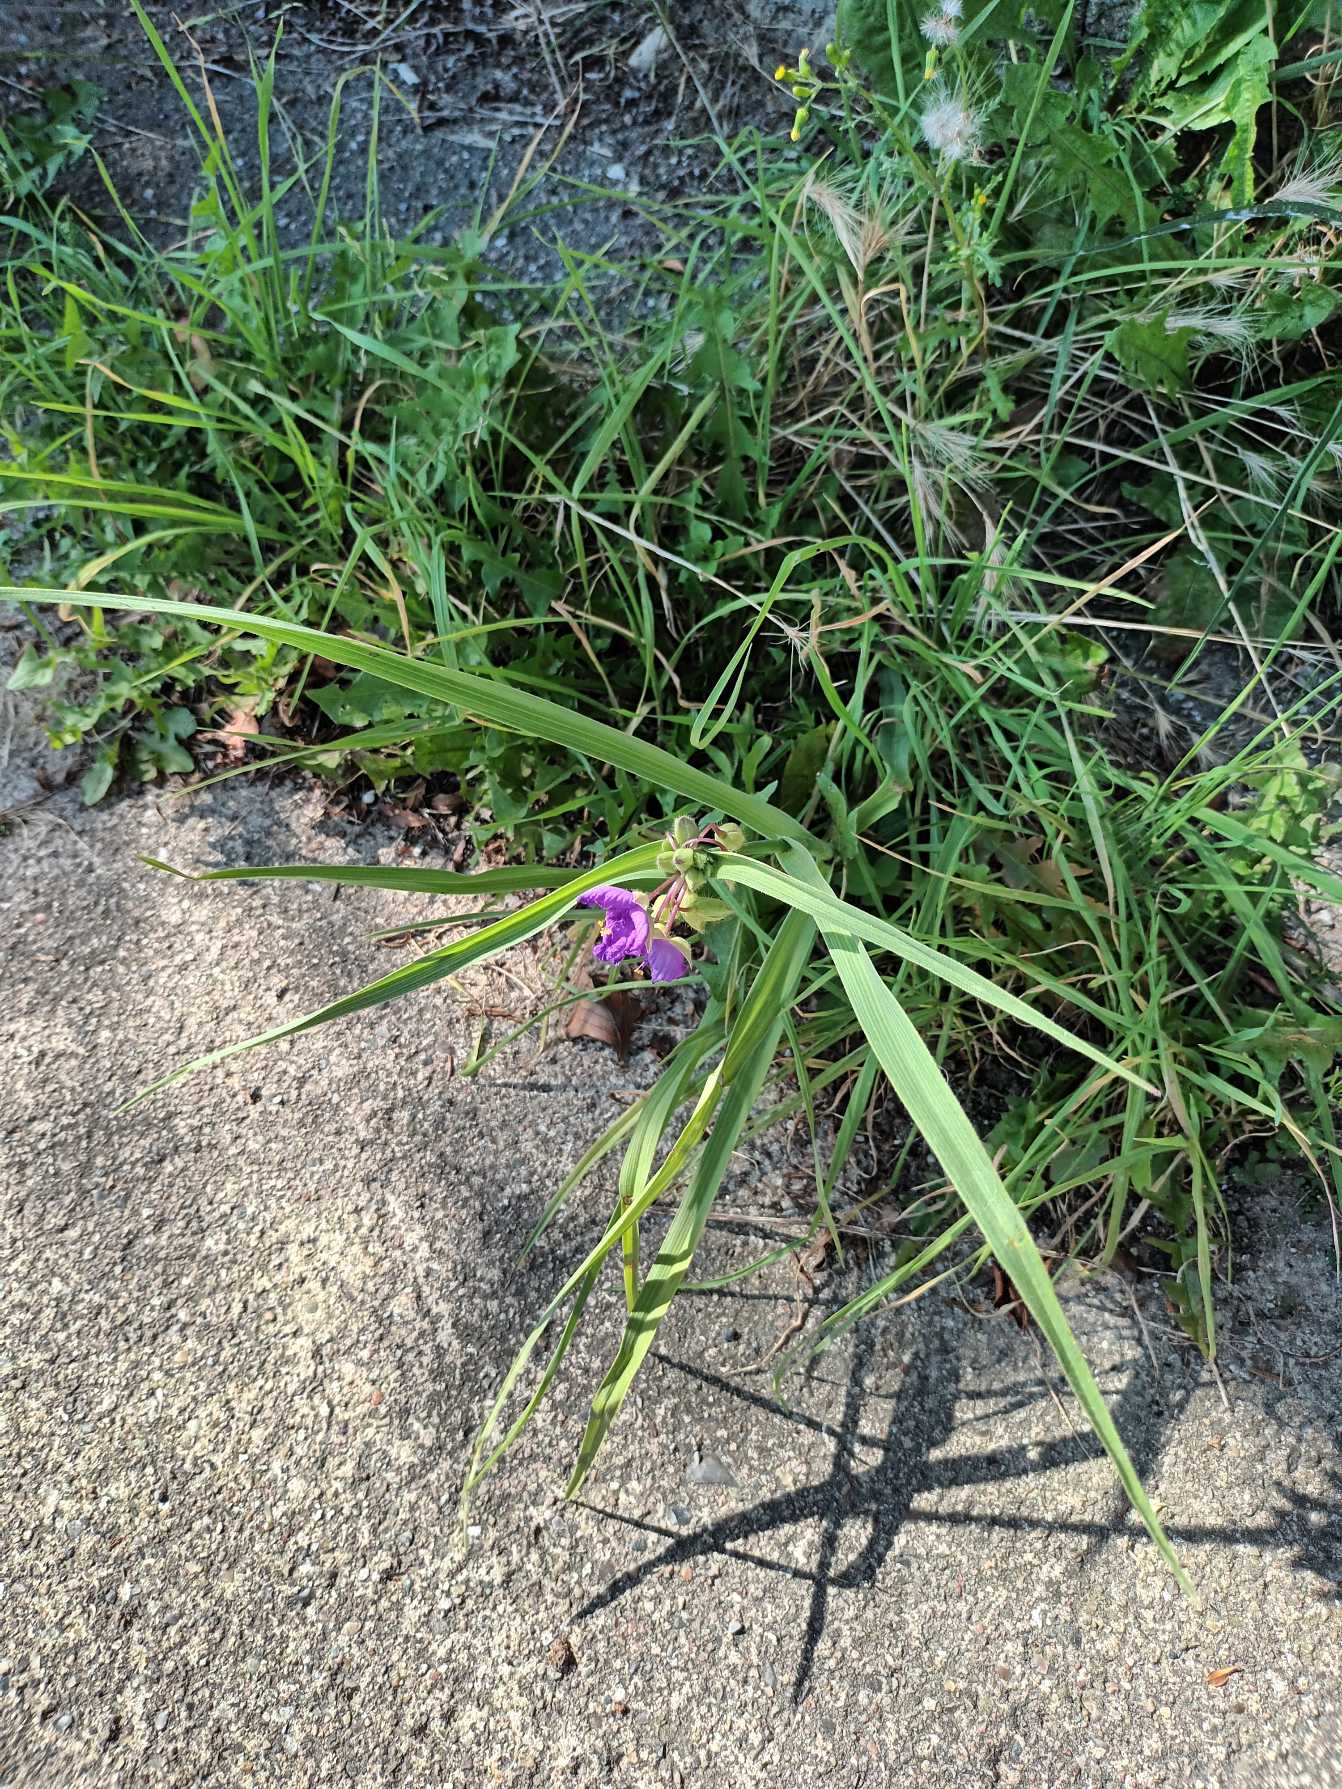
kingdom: Plantae
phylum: Tracheophyta
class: Liliopsida
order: Commelinales
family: Commelinaceae
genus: Tradescantia
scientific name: Tradescantia virginiana
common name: Blomsterjøde
